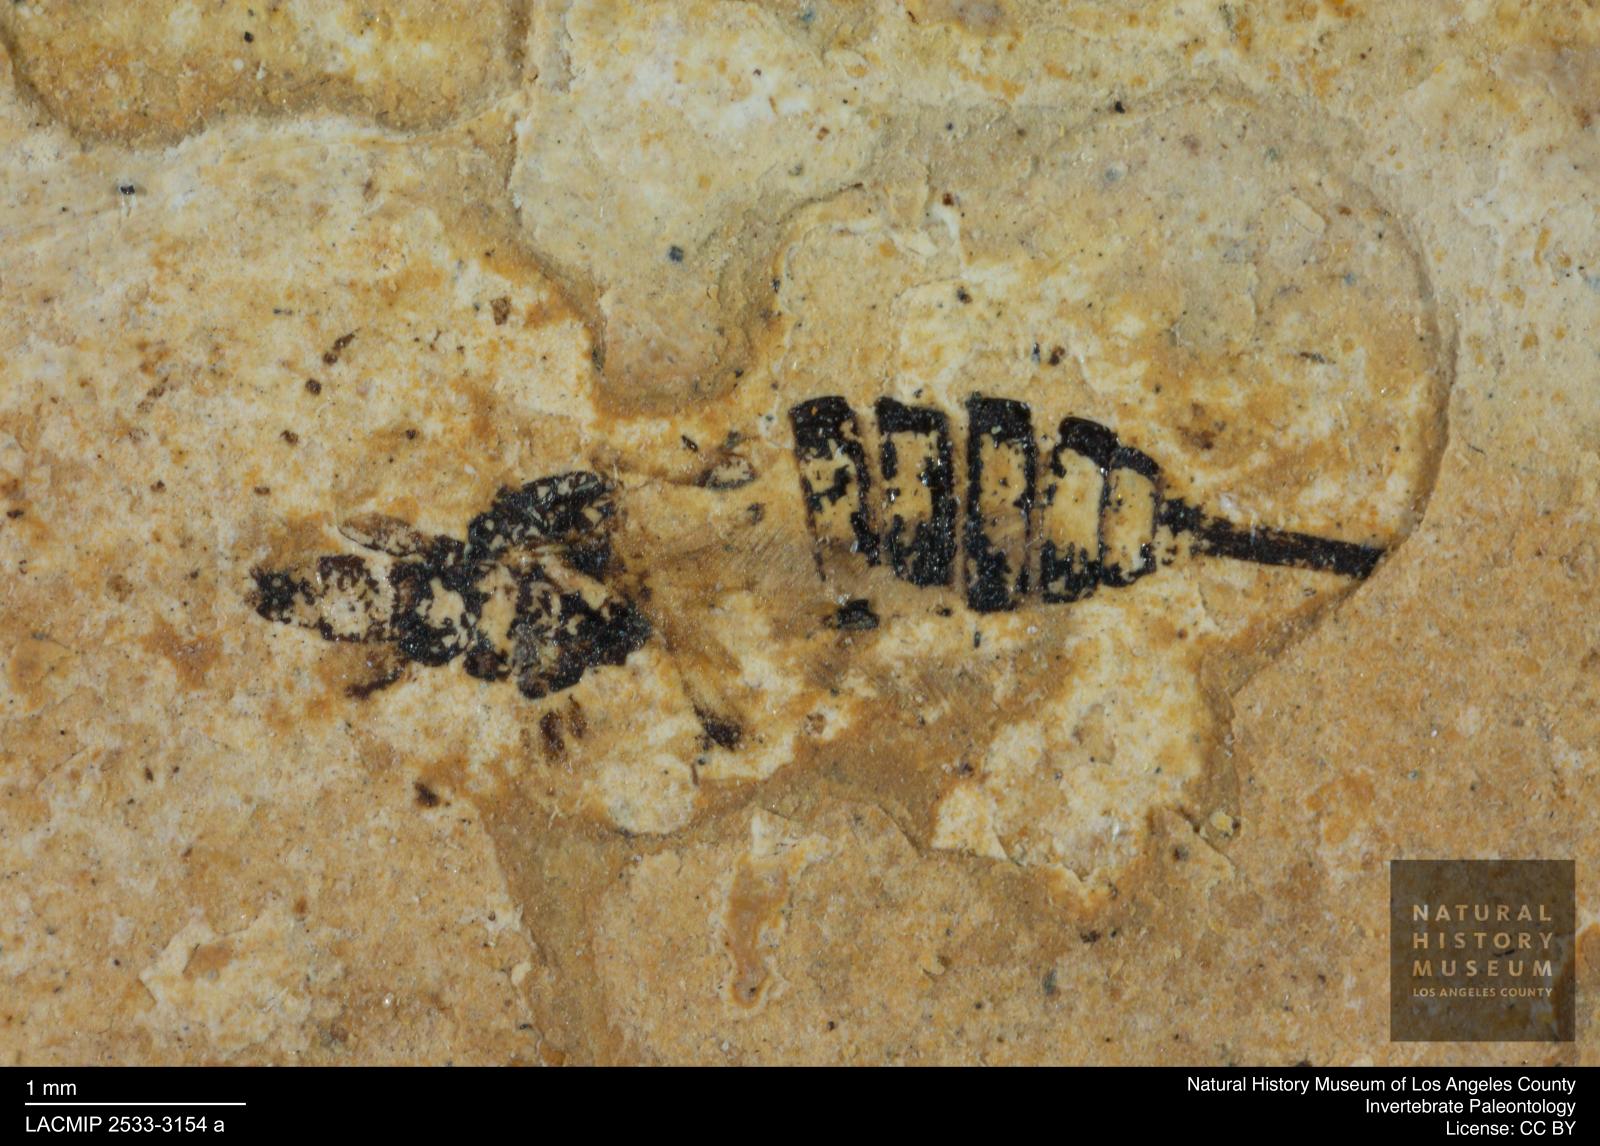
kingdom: Animalia
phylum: Arthropoda
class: Insecta
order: Thysanoptera
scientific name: Thysanoptera
